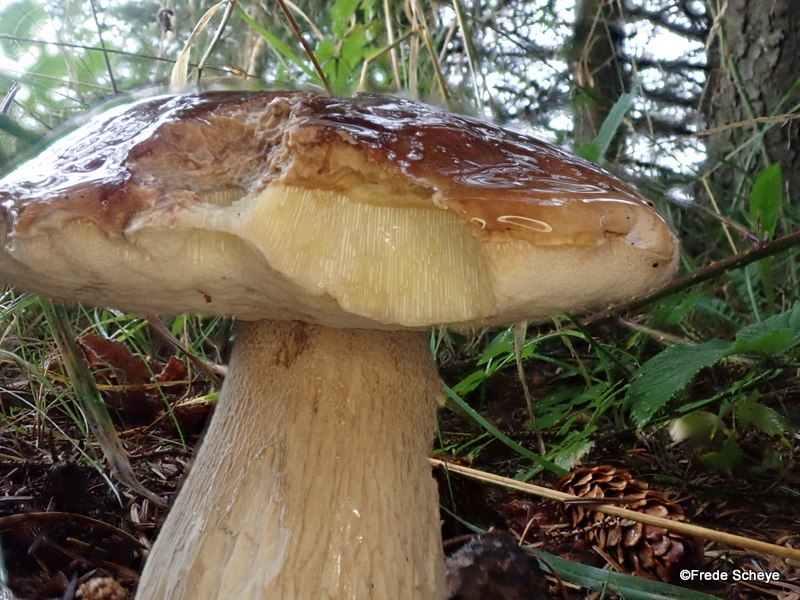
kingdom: Fungi
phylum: Basidiomycota
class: Agaricomycetes
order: Boletales
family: Boletaceae
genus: Boletus
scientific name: Boletus edulis
